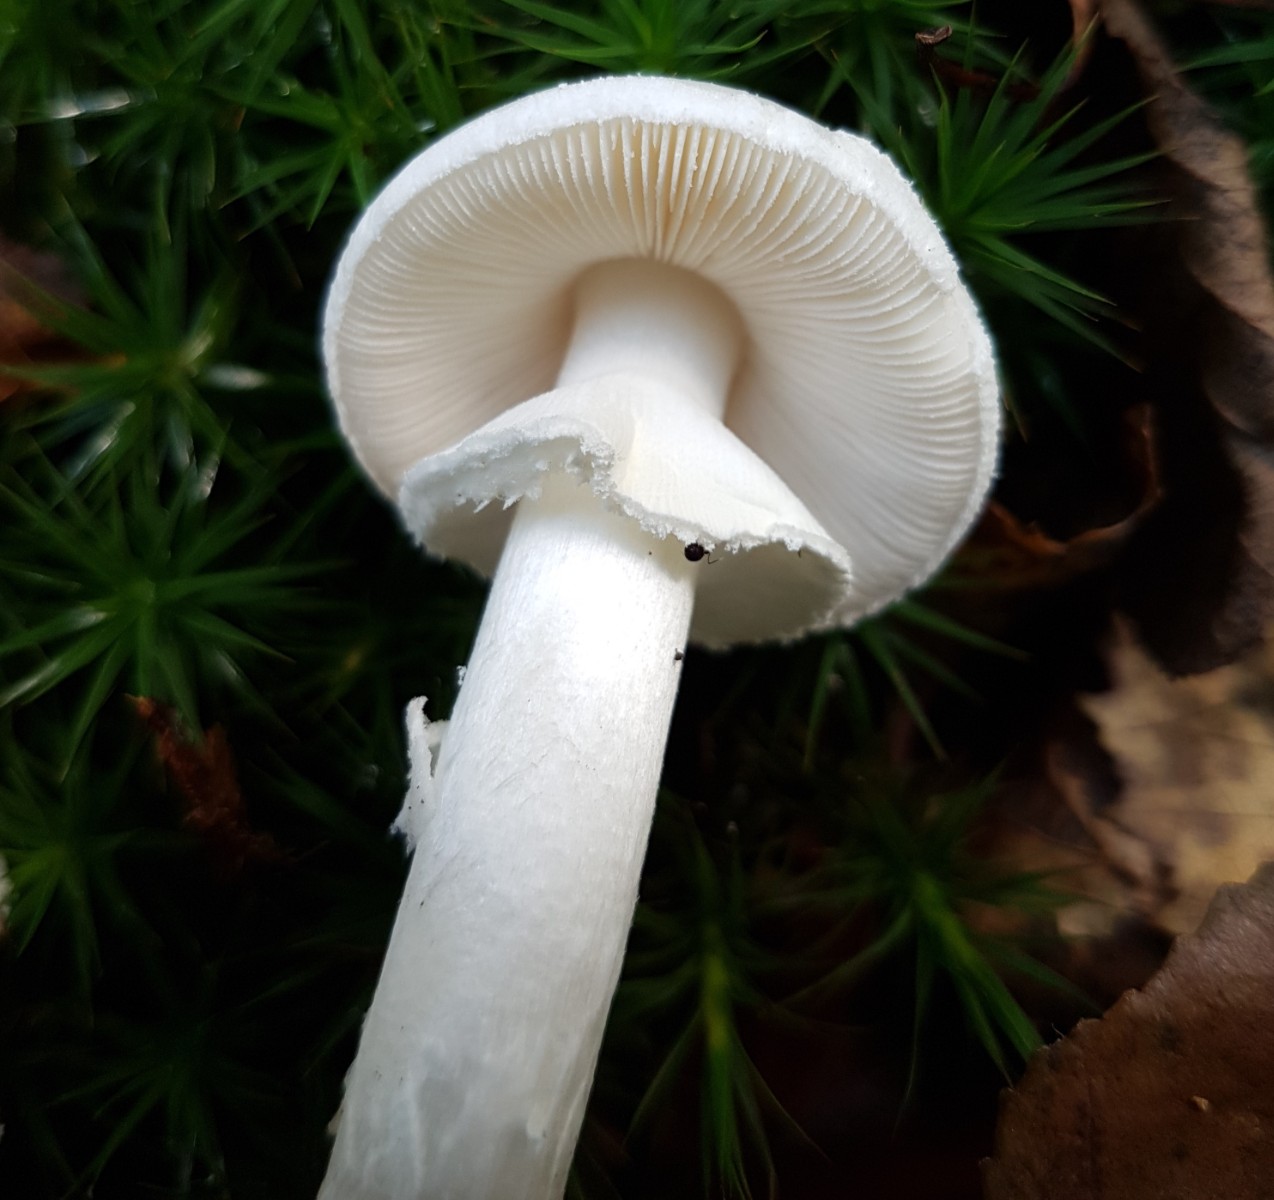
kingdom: Fungi
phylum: Basidiomycota
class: Agaricomycetes
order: Agaricales
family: Amanitaceae
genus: Amanita
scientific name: Amanita citrina
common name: False death-cap
